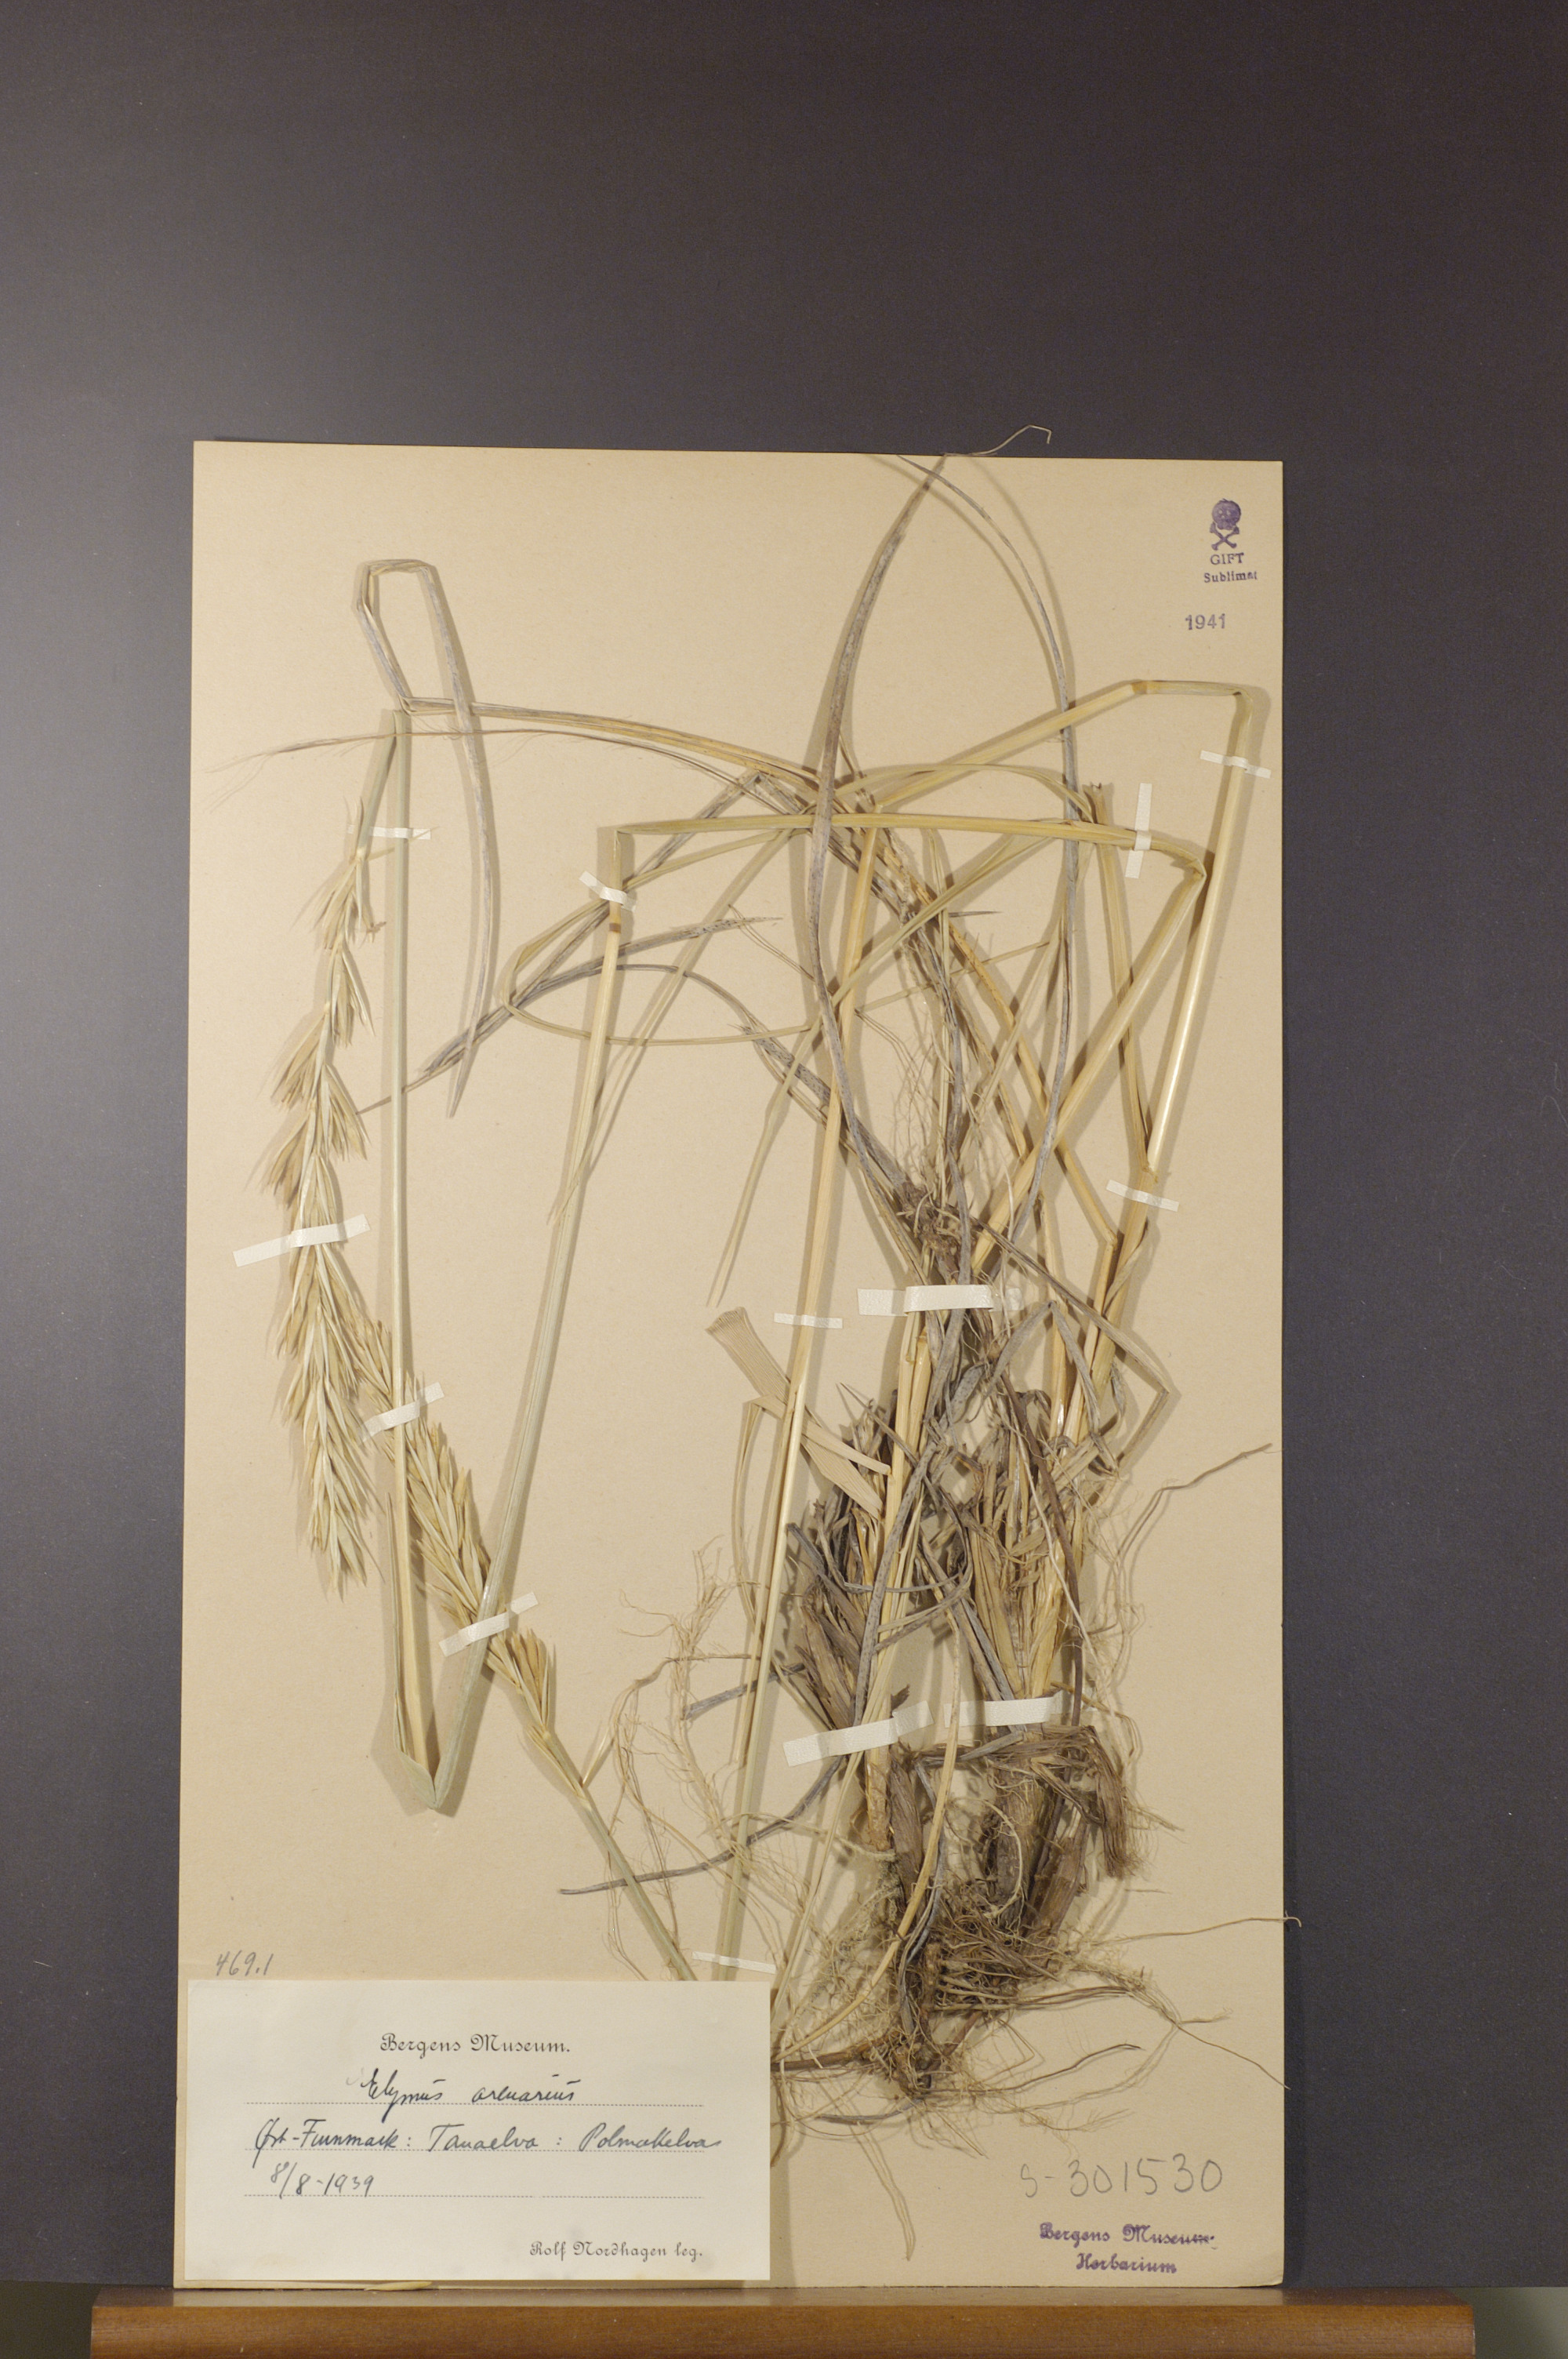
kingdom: Plantae
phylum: Tracheophyta
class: Liliopsida
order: Poales
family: Poaceae
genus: Leymus
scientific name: Leymus arenarius
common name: Lyme-grass
